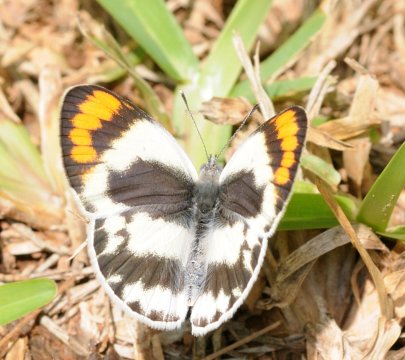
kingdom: Animalia
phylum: Arthropoda
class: Insecta
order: Lepidoptera
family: Pieridae
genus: Colotis
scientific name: Colotis euippe
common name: Round-winged Orange Tip
